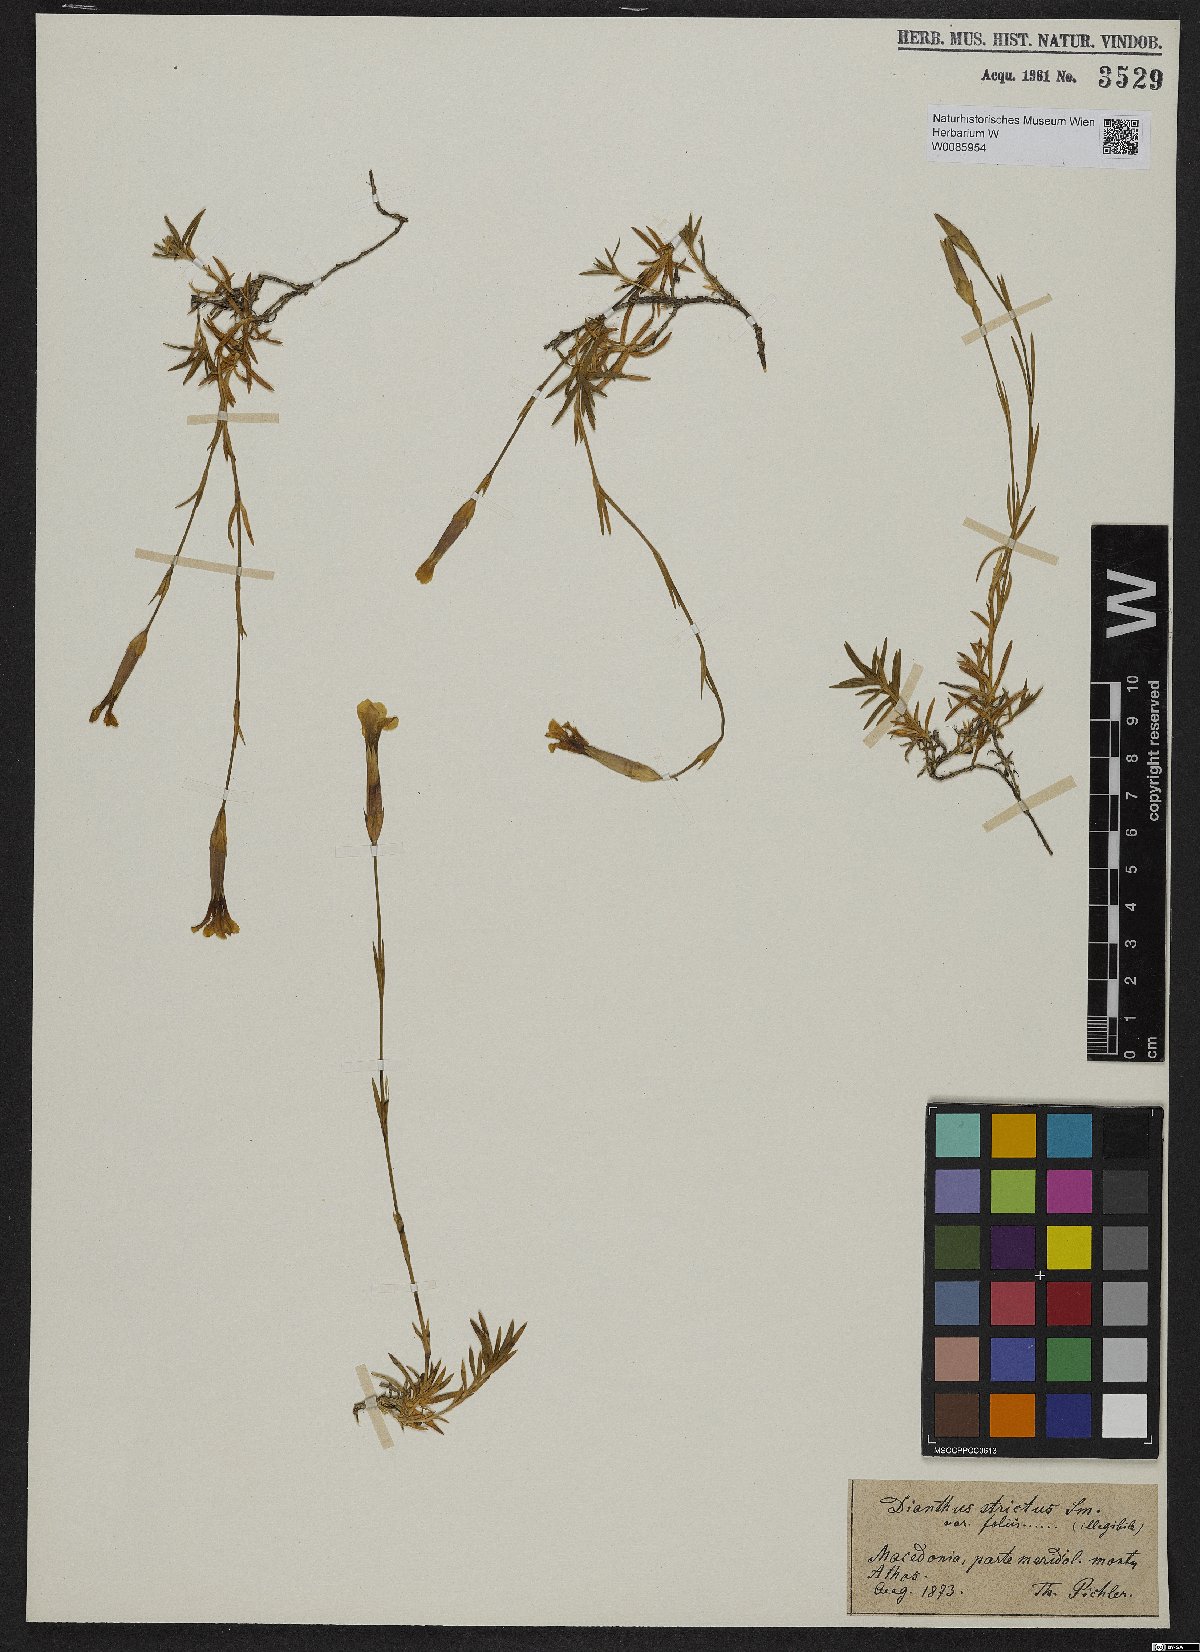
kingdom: Plantae
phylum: Tracheophyta
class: Magnoliopsida
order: Caryophyllales
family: Caryophyllaceae
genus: Dianthus
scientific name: Dianthus petraeus
